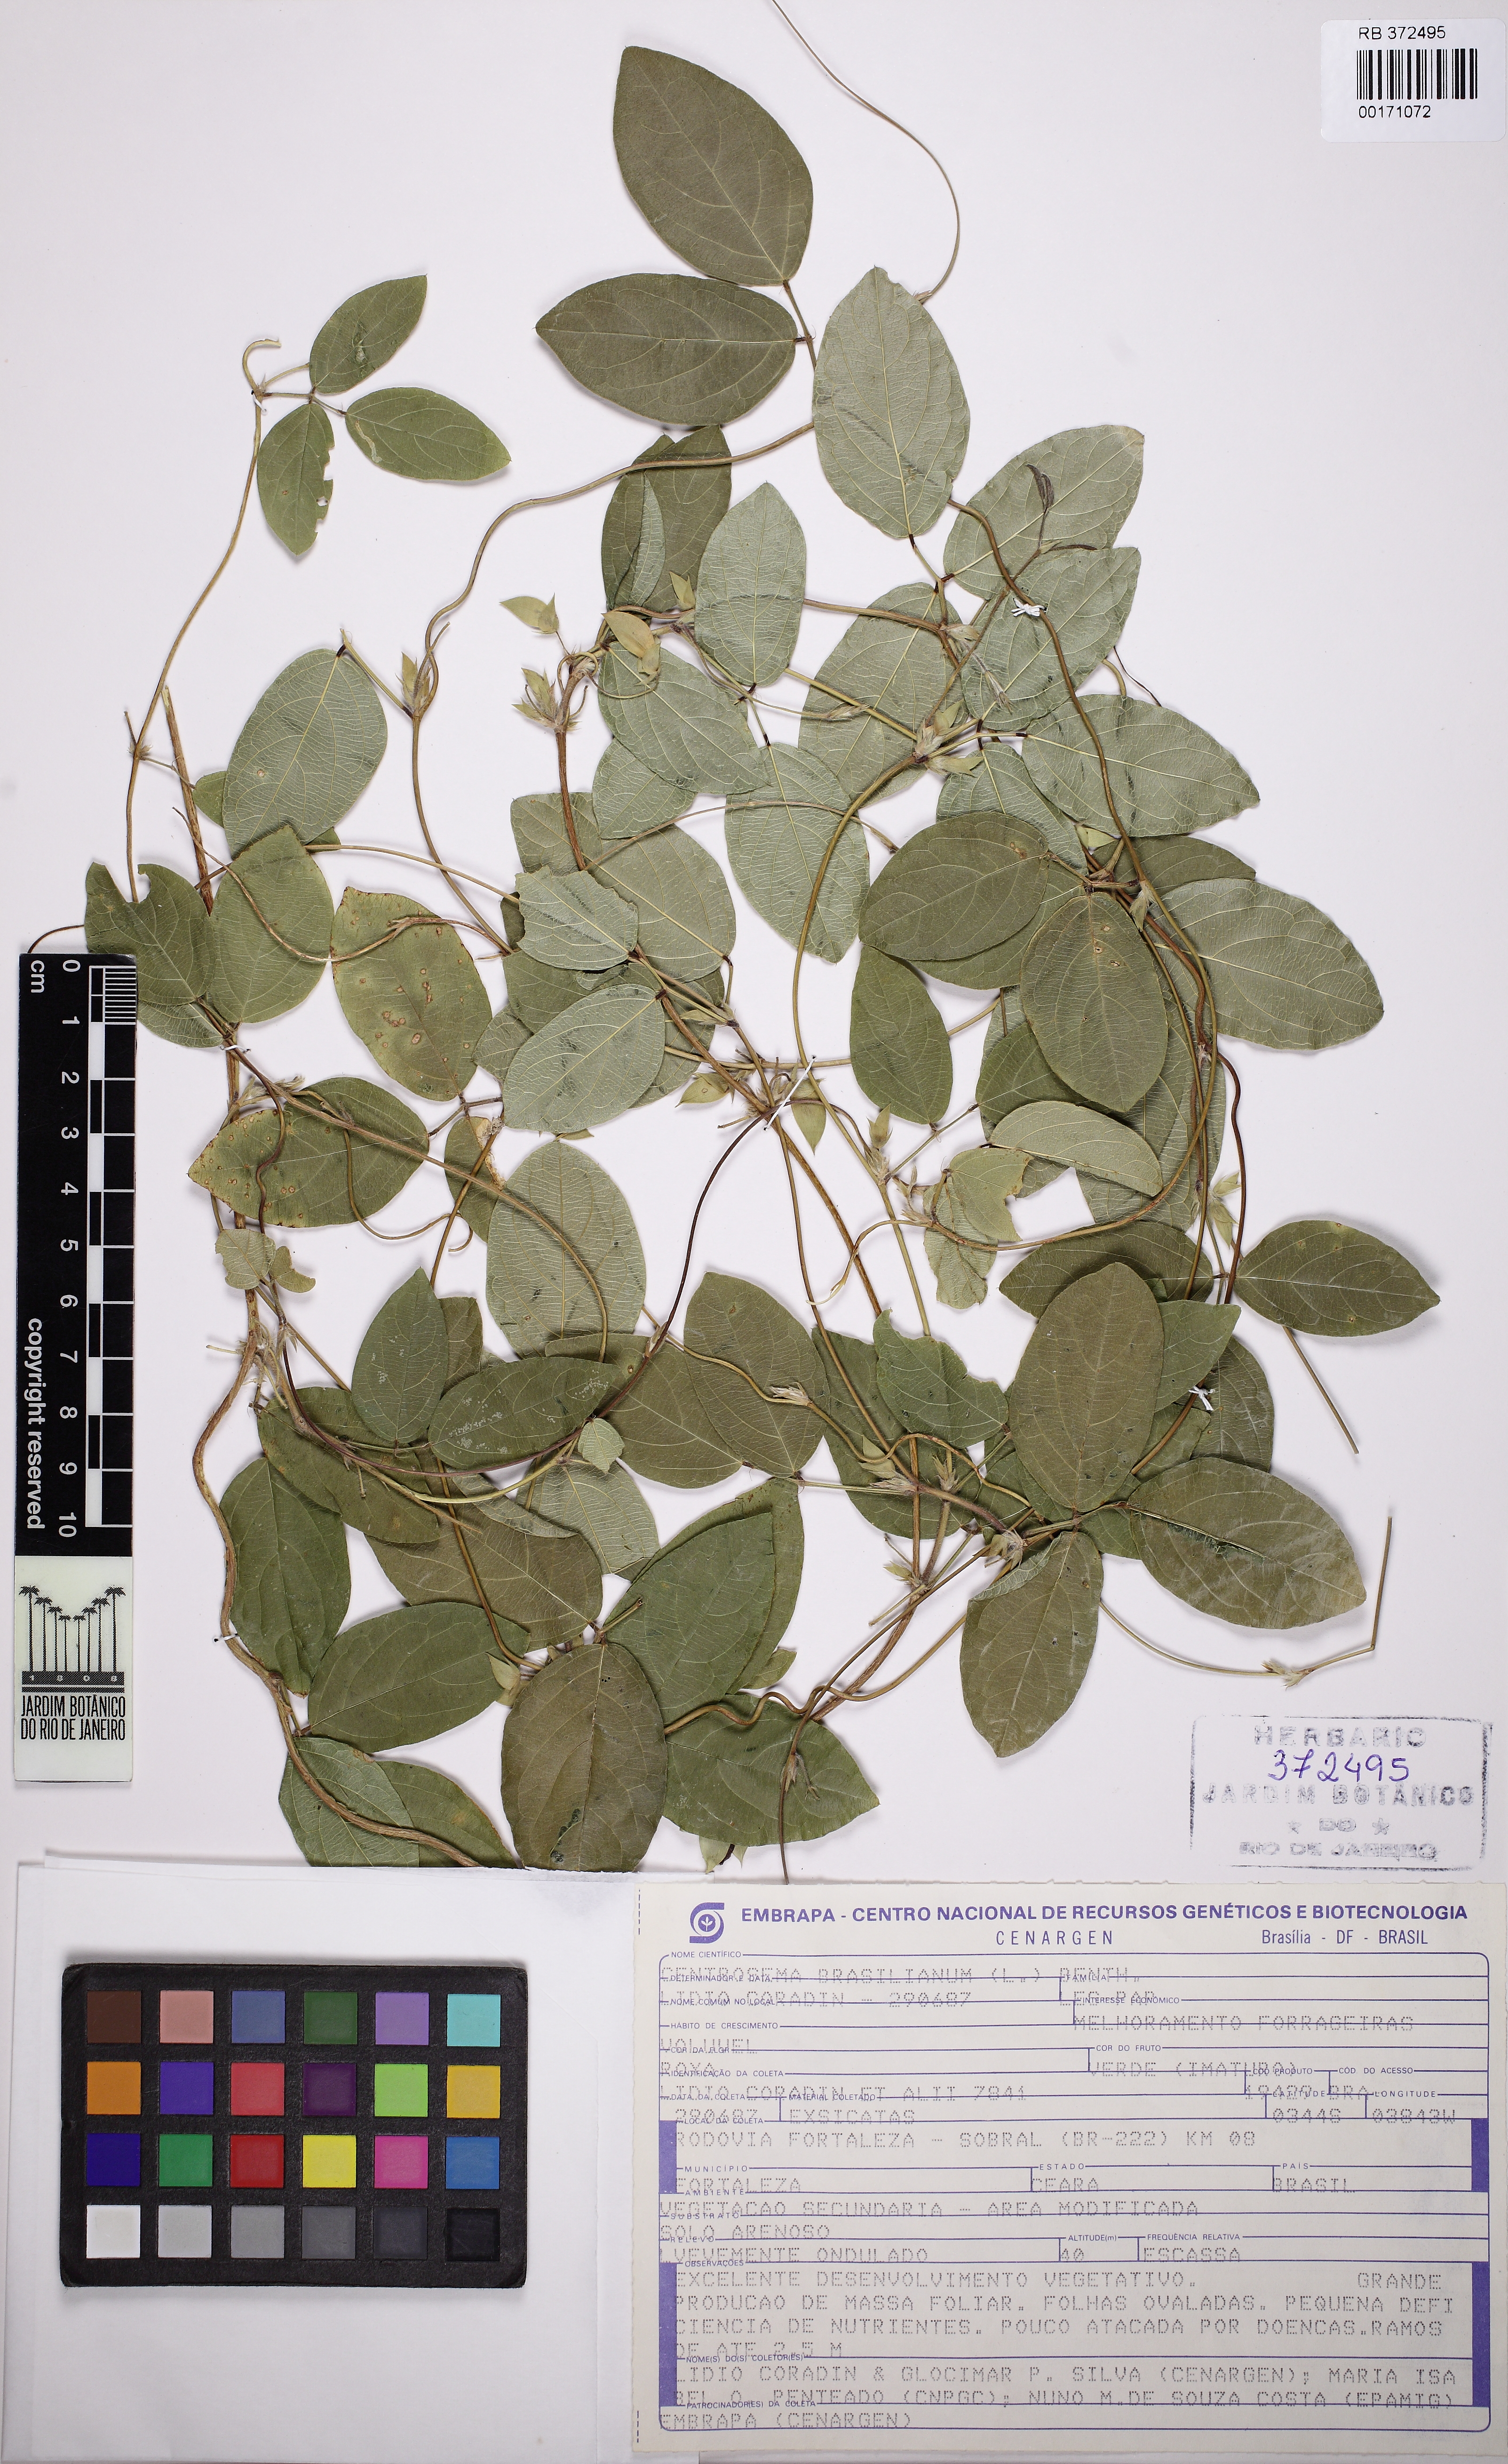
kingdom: Plantae
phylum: Tracheophyta
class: Magnoliopsida
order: Fabales
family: Fabaceae
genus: Centrosema
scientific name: Centrosema brasilianum
